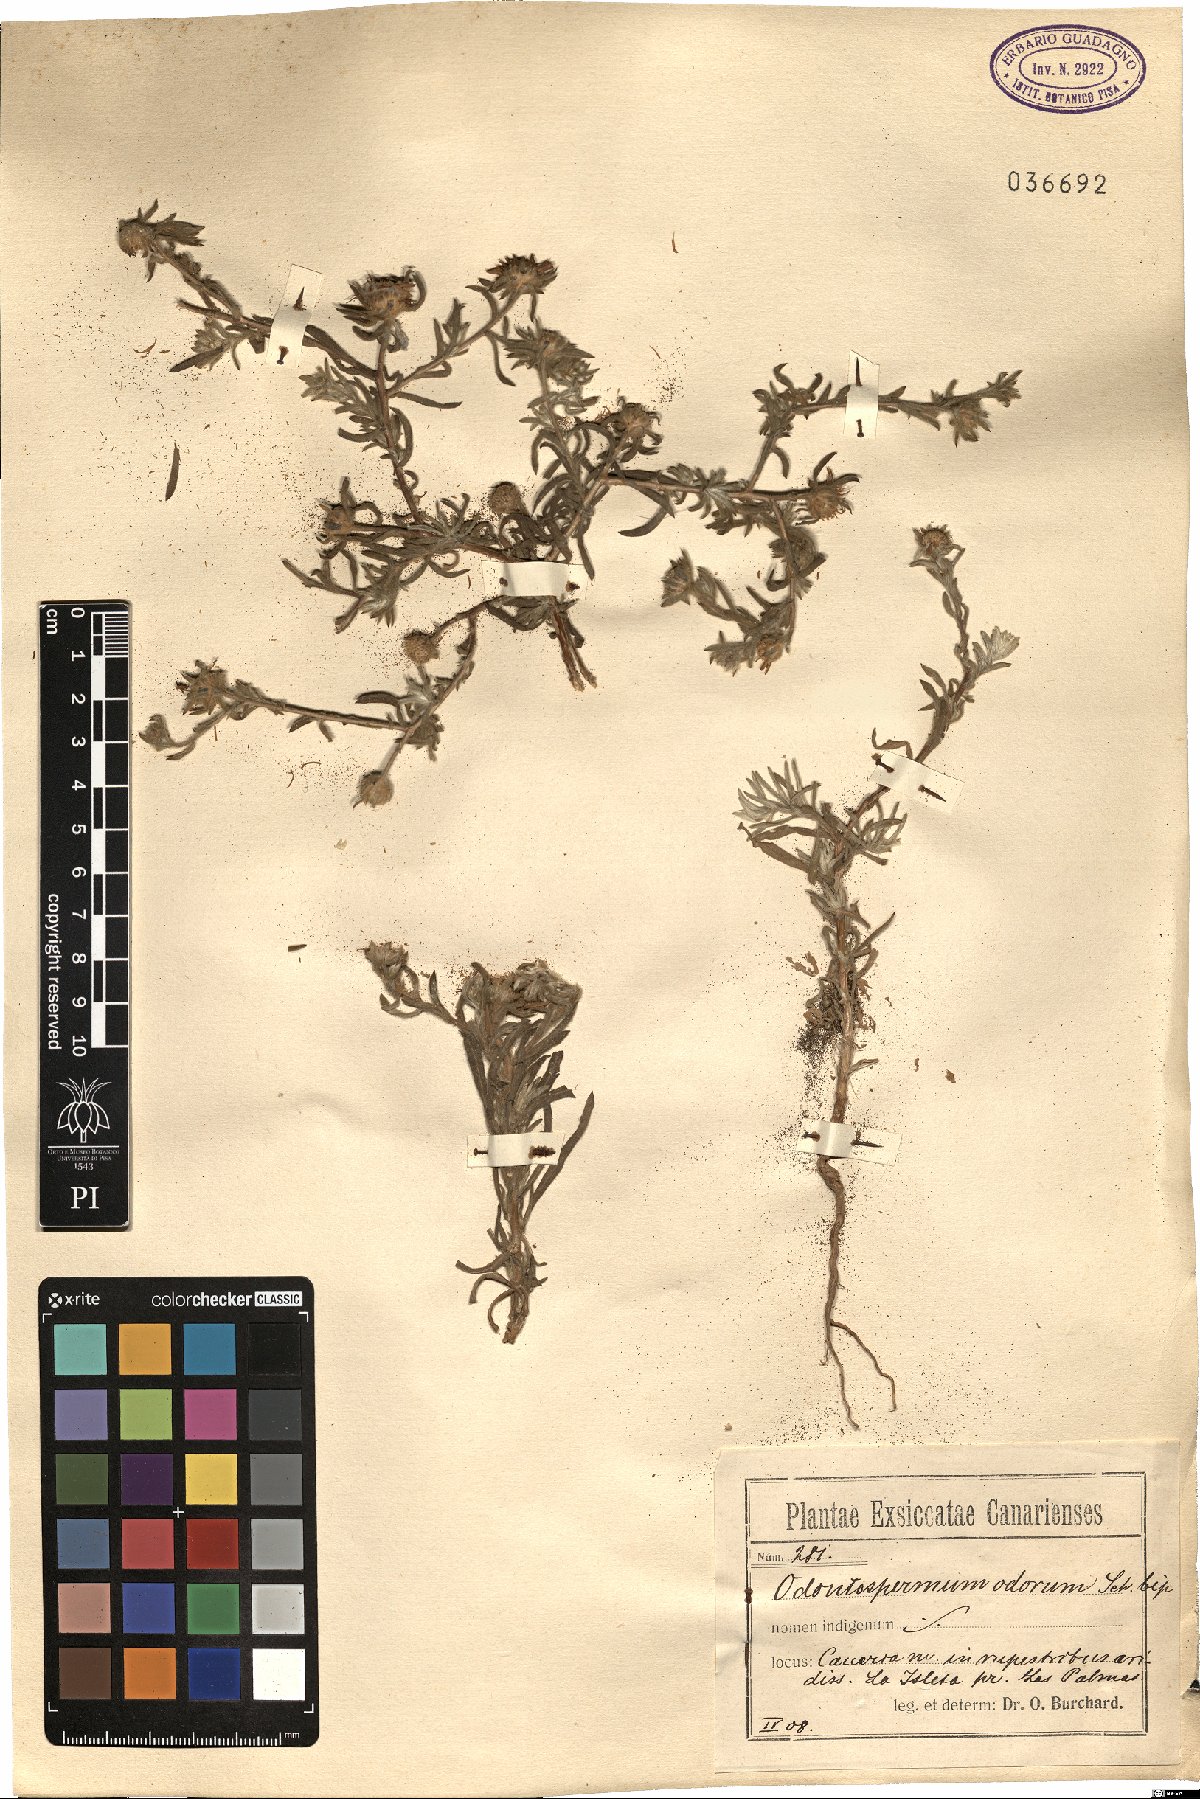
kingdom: Plantae
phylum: Tracheophyta
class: Magnoliopsida
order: Asterales
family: Asteraceae
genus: Asteriscus
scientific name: Asteriscus graveolens
